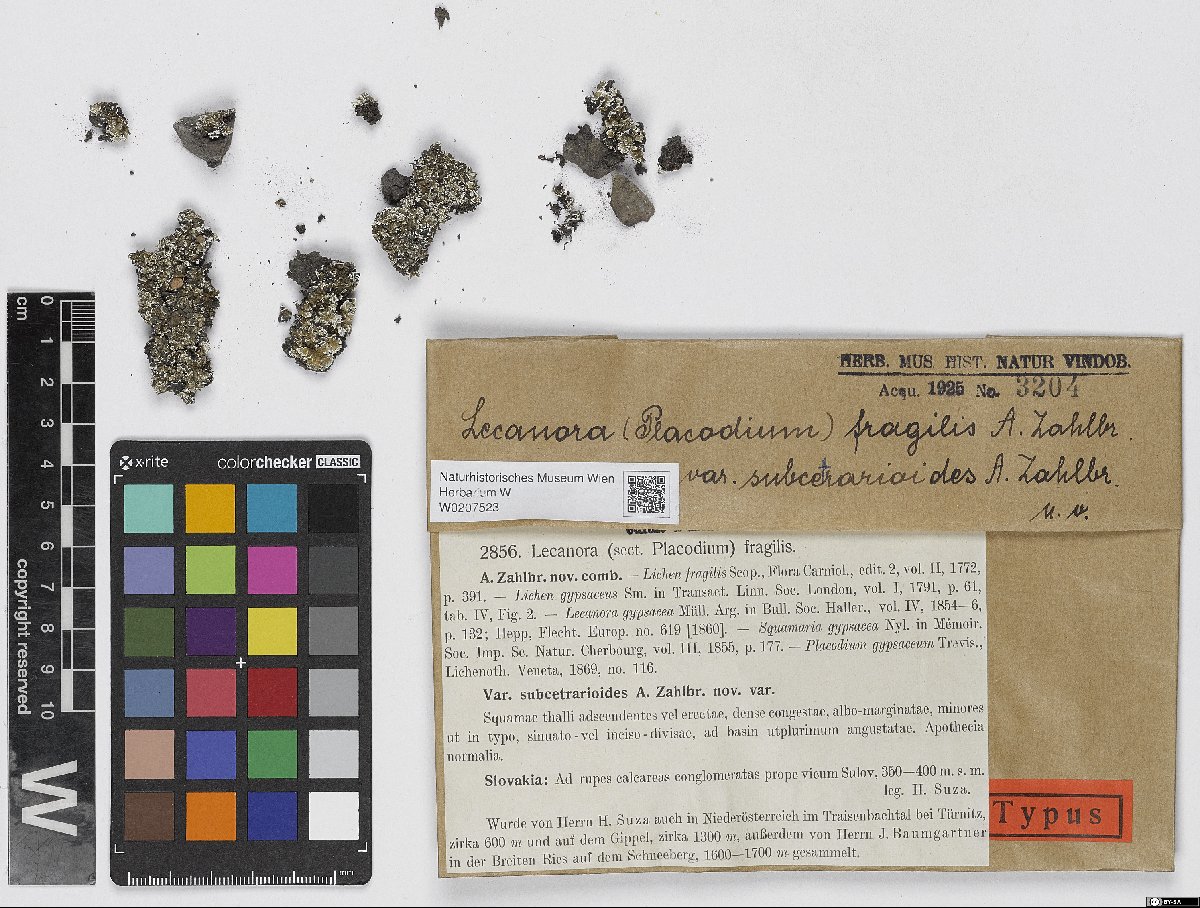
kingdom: Fungi
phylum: Ascomycota
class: Lecanoromycetes
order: Lecanorales
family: Stereocaulaceae
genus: Squamarina
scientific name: Squamarina gypsacea
